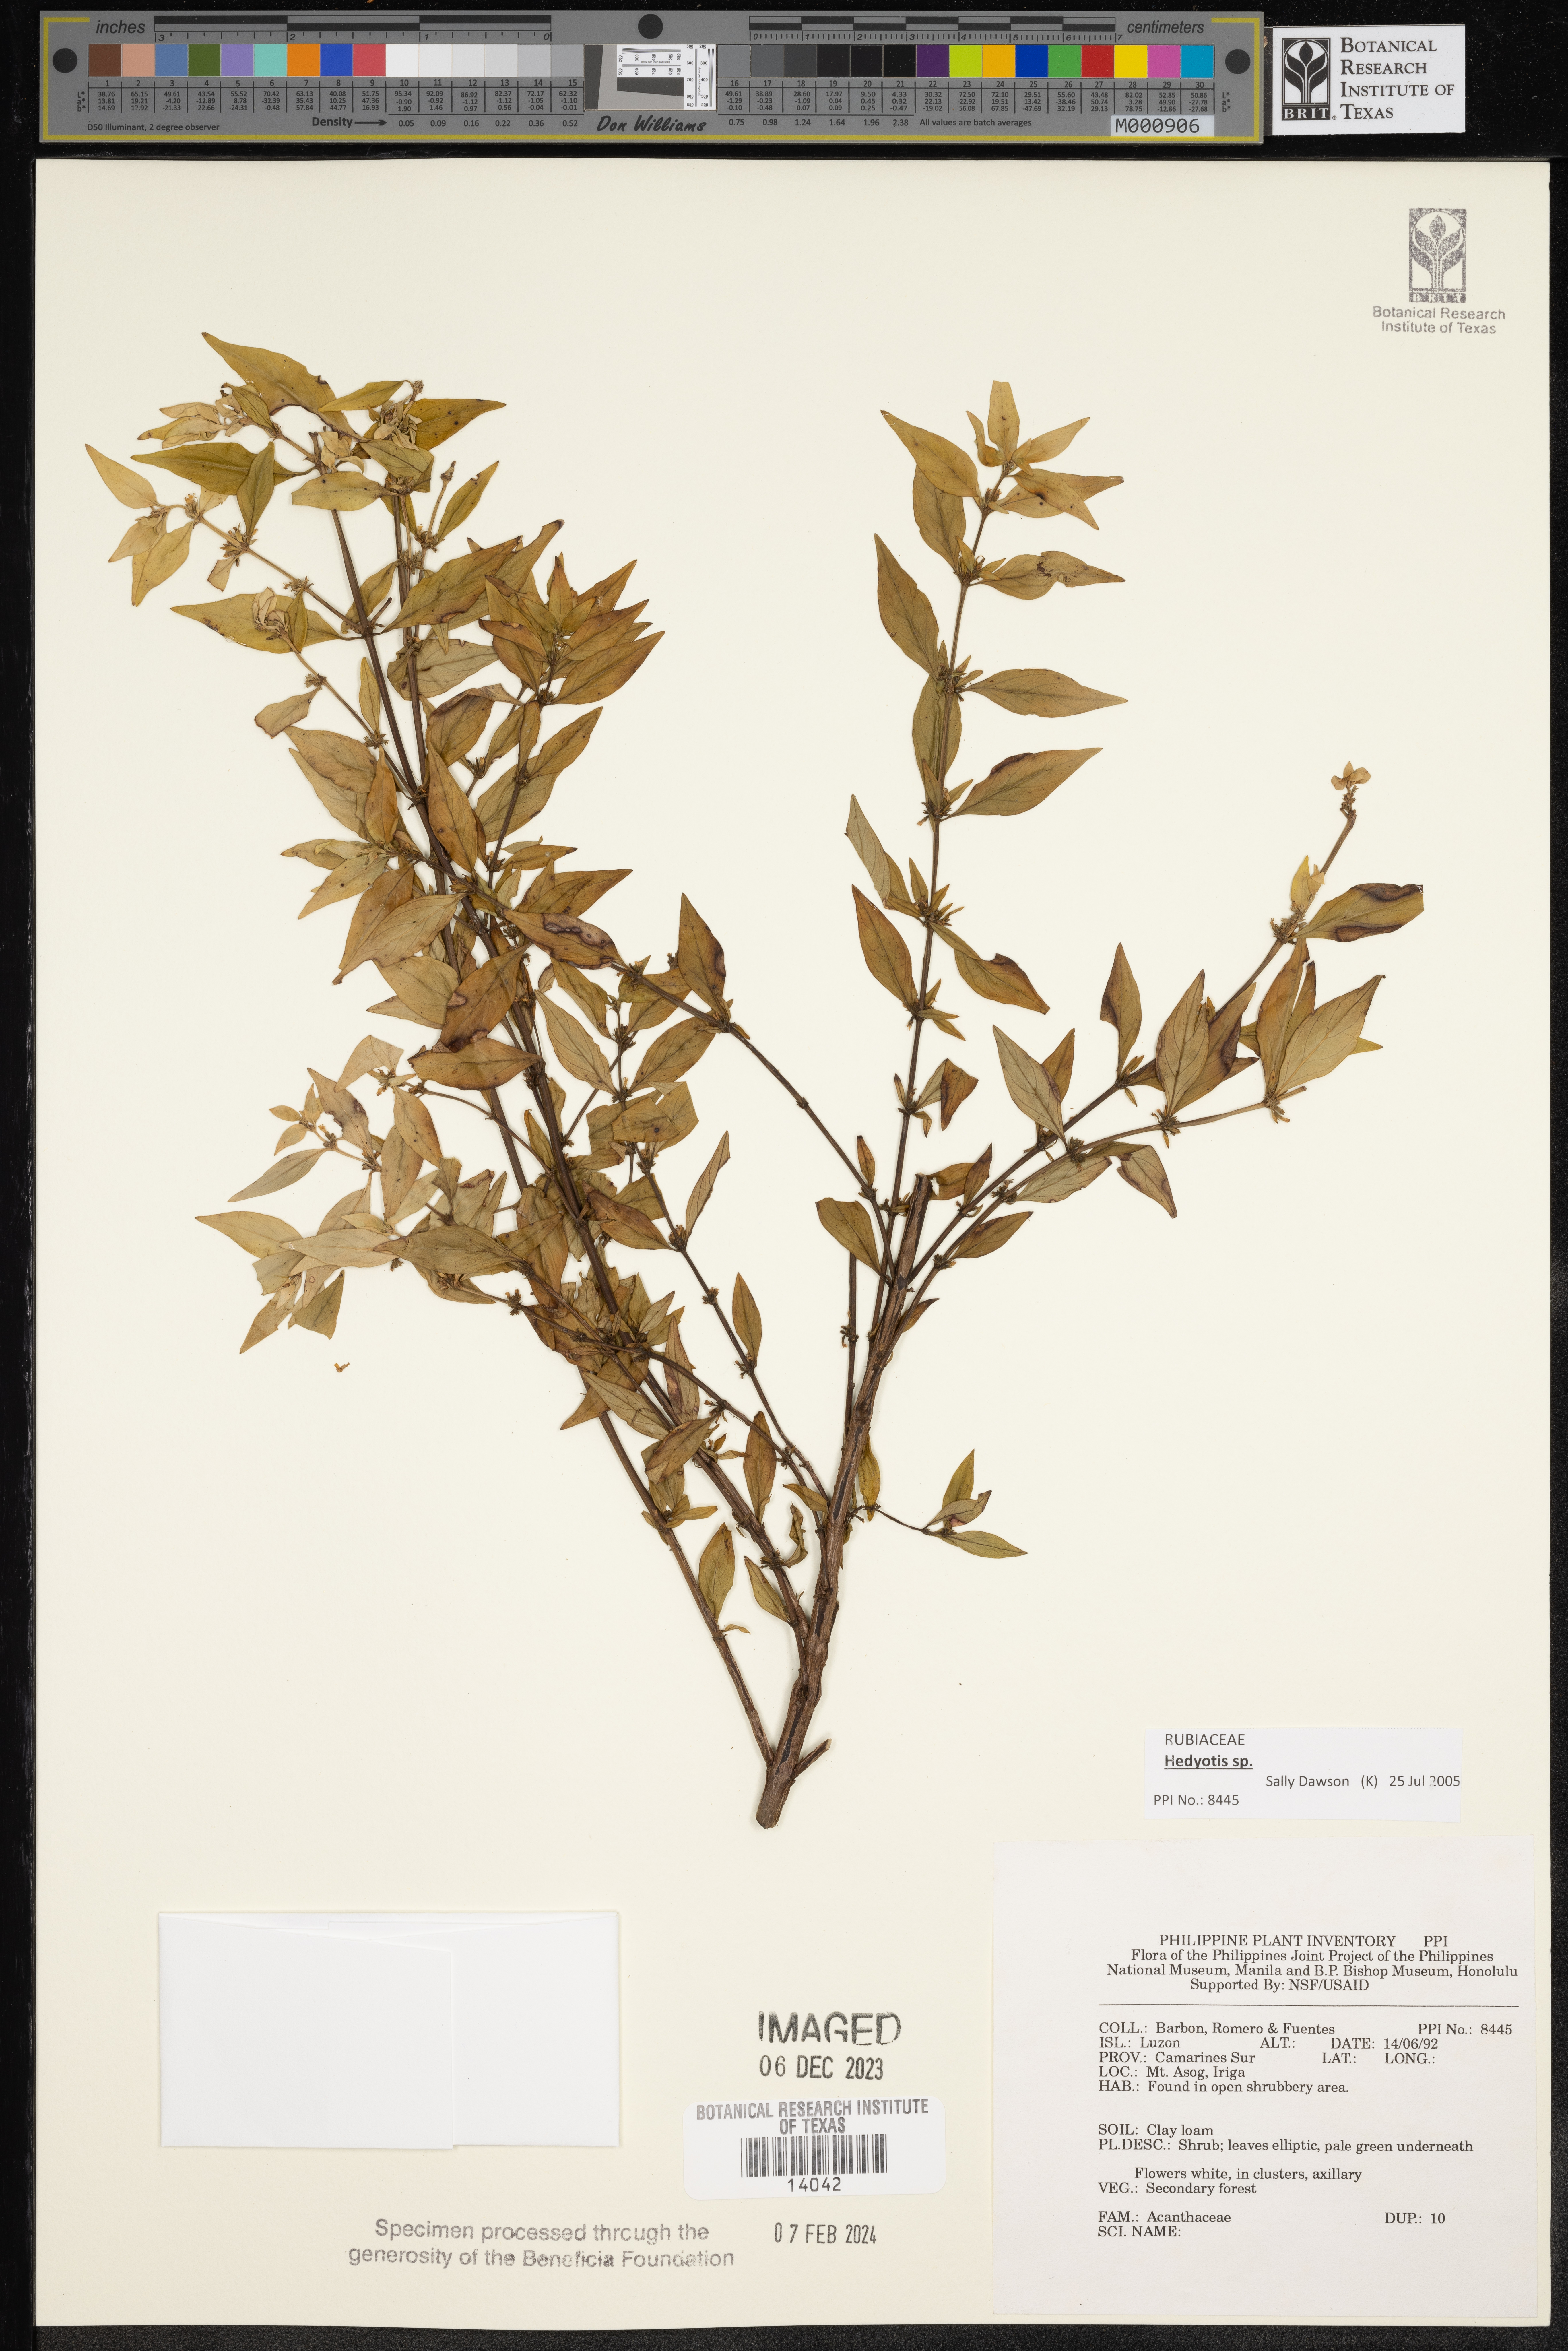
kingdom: Plantae
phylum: Tracheophyta
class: Magnoliopsida
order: Gentianales
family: Rubiaceae
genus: Hedyotis
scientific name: Hedyotis
